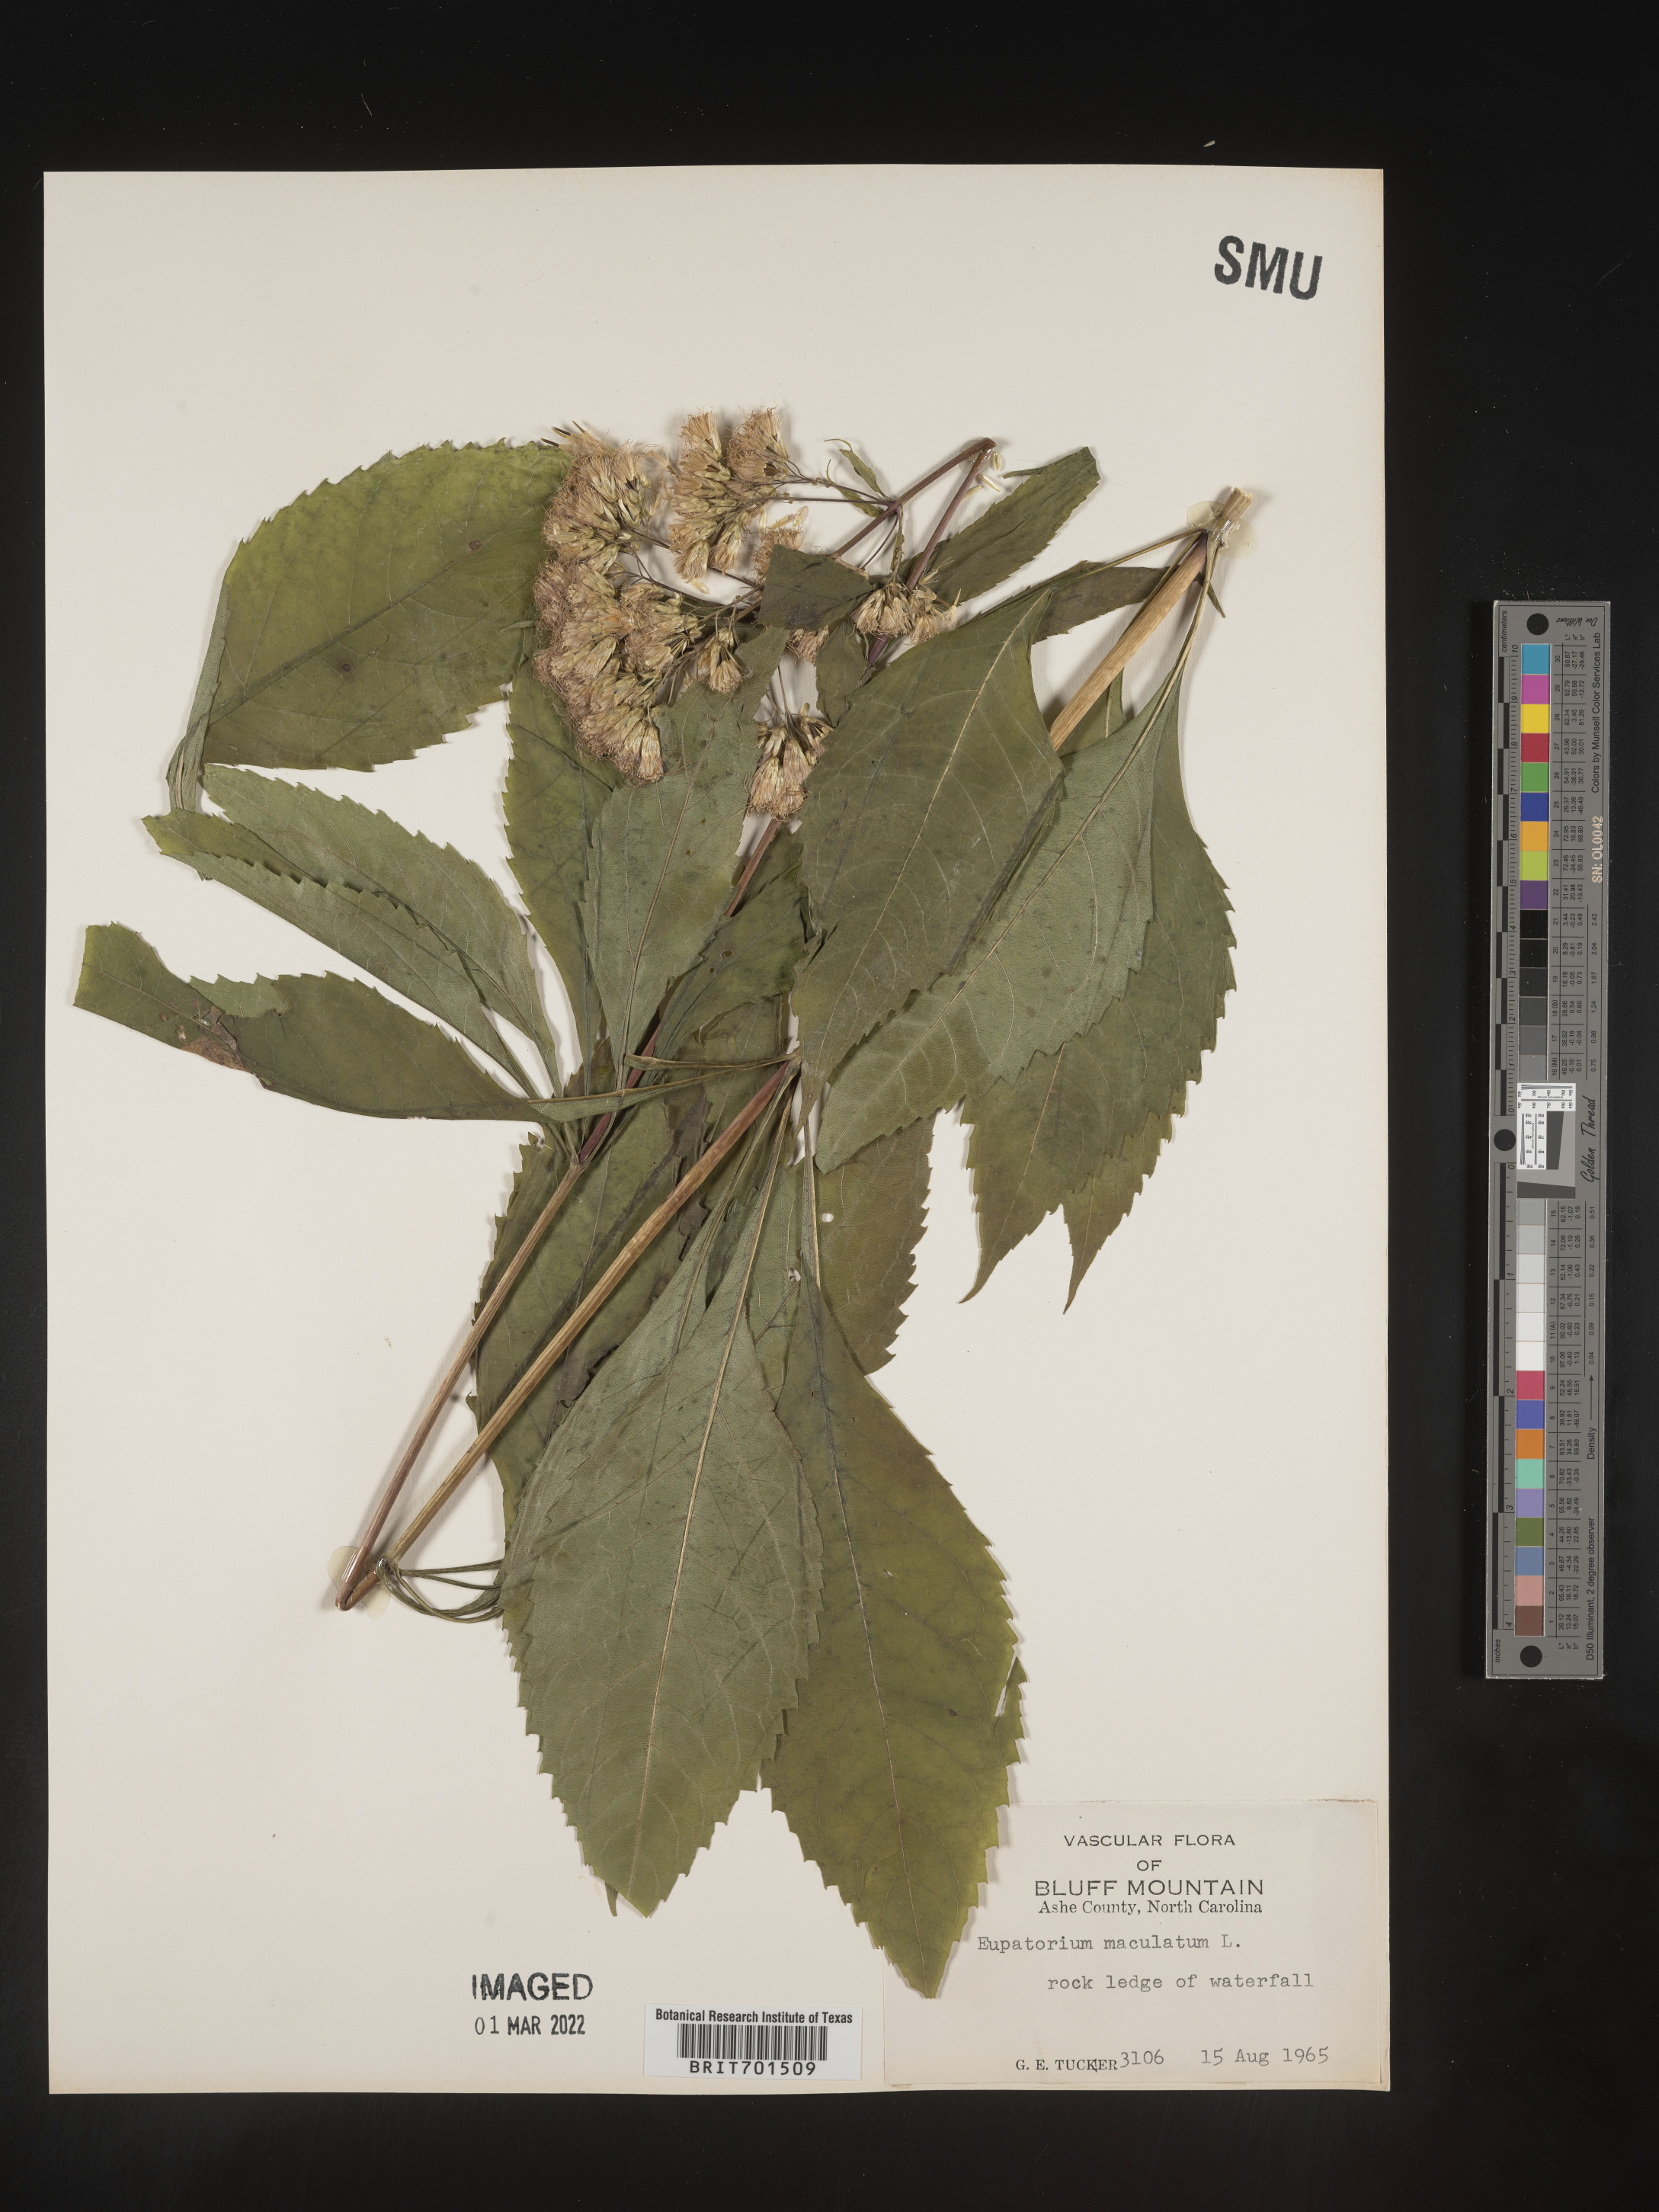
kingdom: Plantae
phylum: Tracheophyta
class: Magnoliopsida
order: Asterales
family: Asteraceae
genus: Eutrochium
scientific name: Eutrochium maculatum
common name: Spotted joe pye weed
